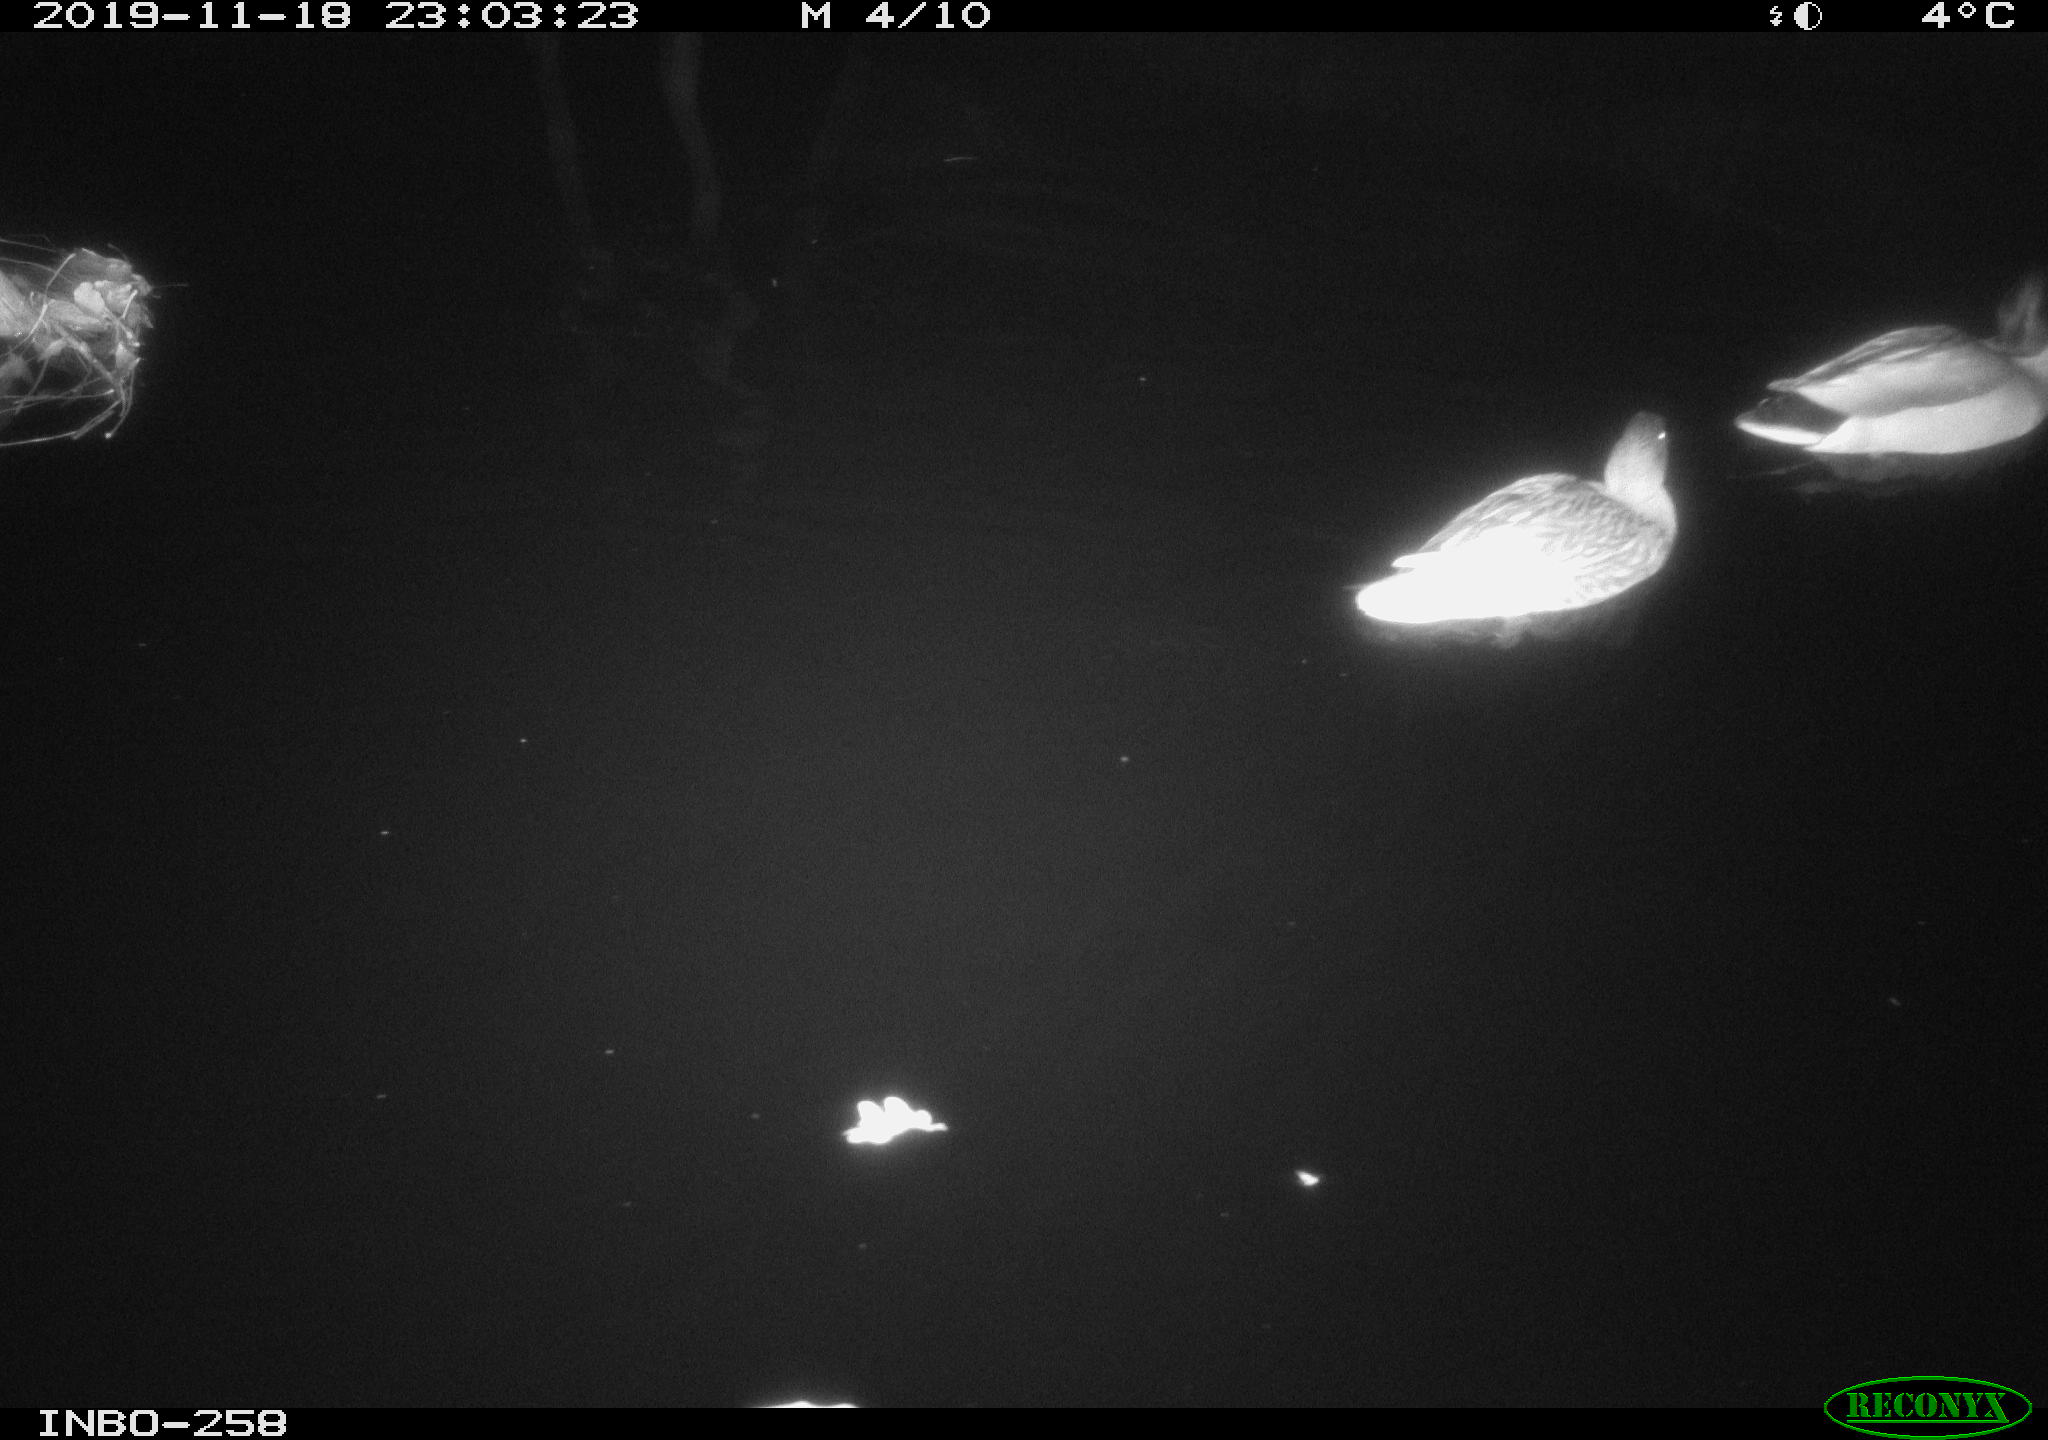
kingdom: Animalia
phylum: Chordata
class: Aves
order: Anseriformes
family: Anatidae
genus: Anas
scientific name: Anas platyrhynchos
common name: Mallard
